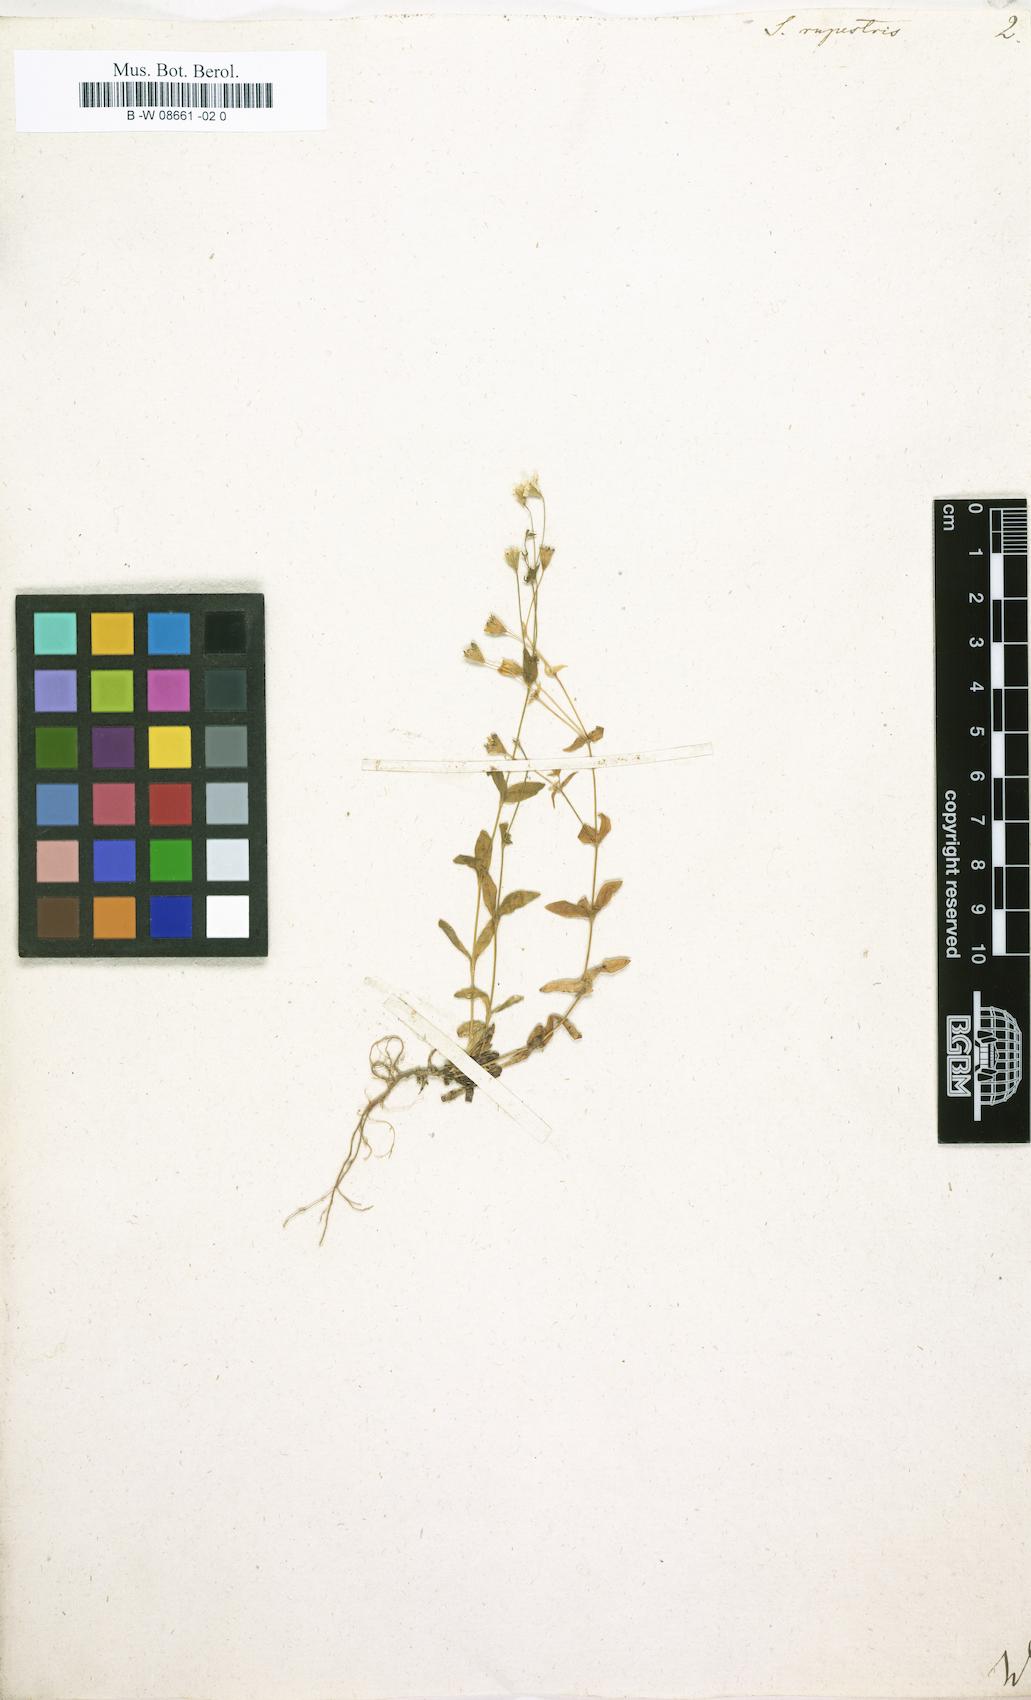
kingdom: Plantae
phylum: Tracheophyta
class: Magnoliopsida
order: Caryophyllales
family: Caryophyllaceae
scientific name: Caryophyllaceae
